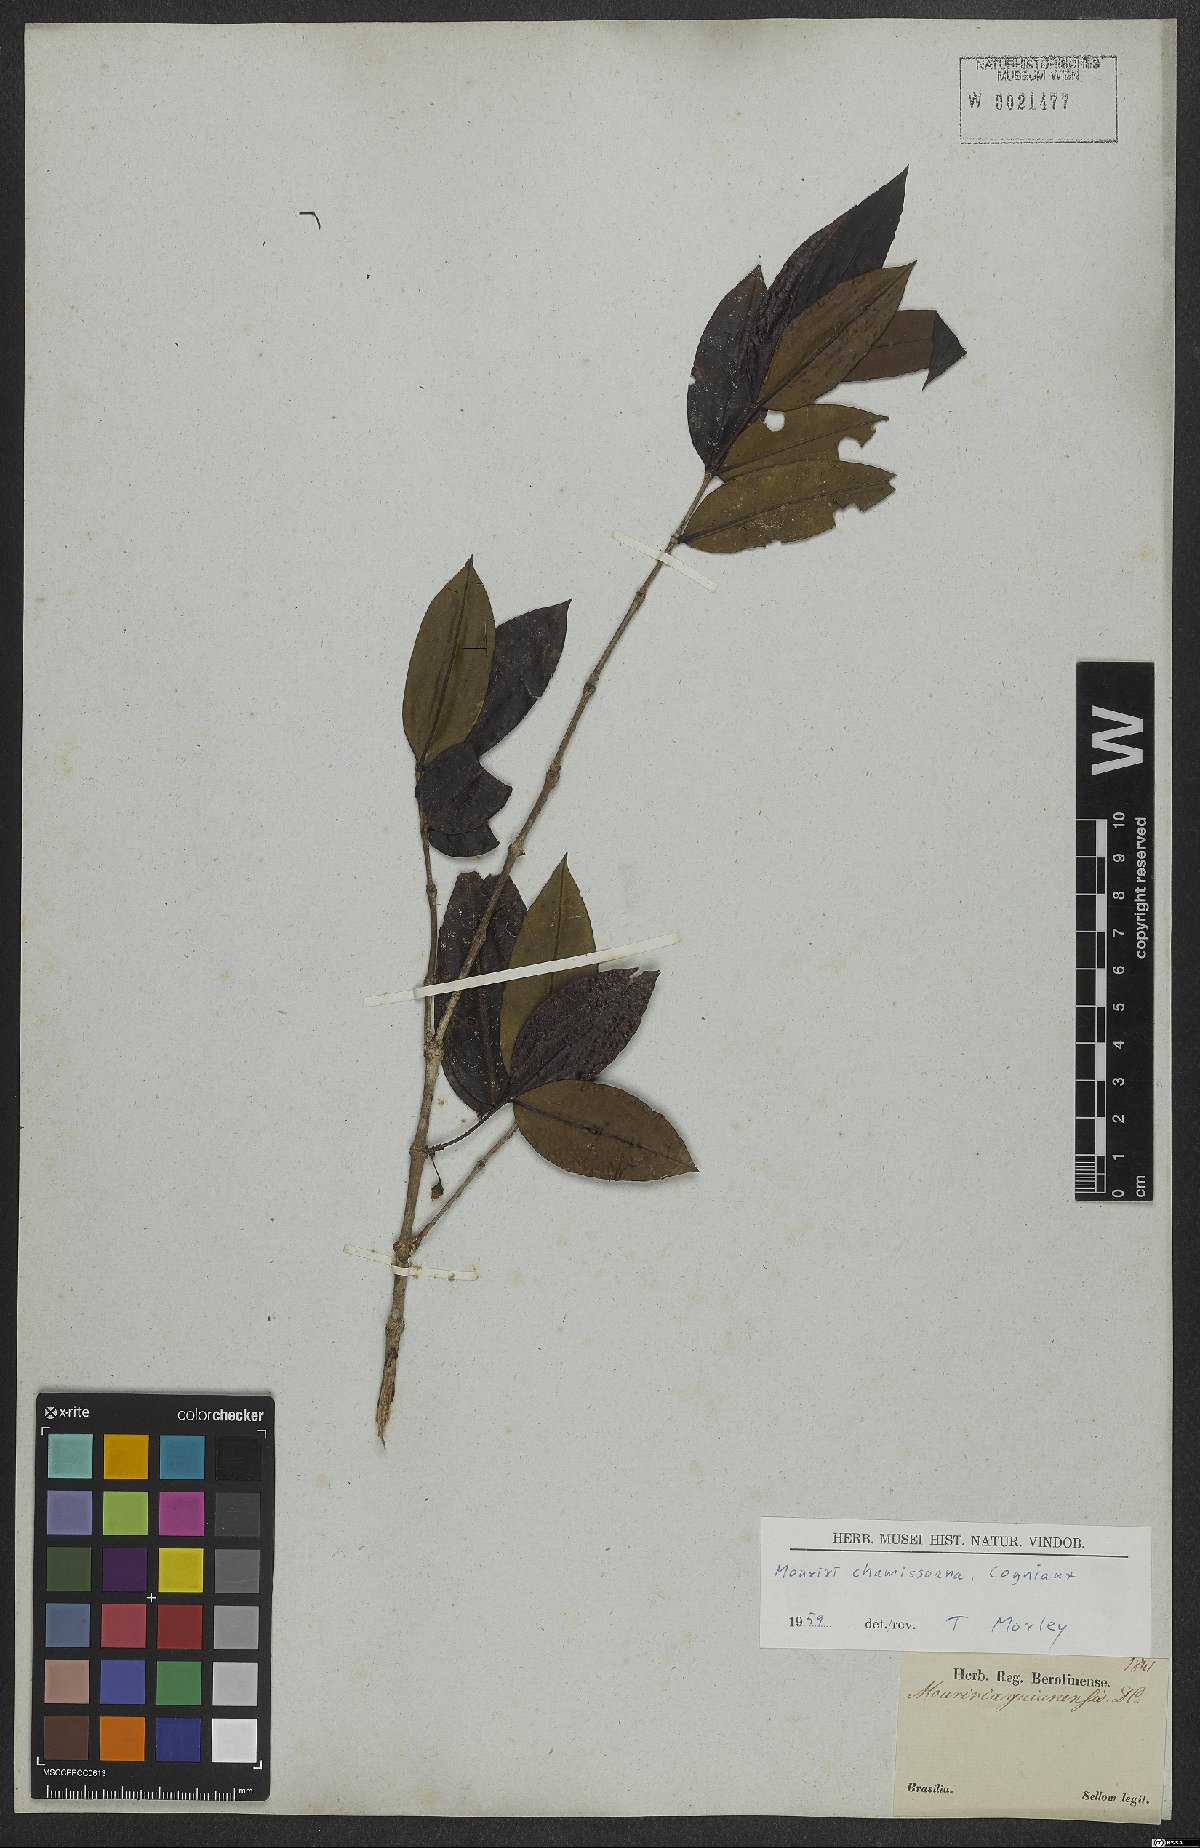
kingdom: Plantae
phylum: Tracheophyta
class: Magnoliopsida
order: Myrtales
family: Melastomataceae
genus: Mouriri
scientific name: Mouriri chamissoana
